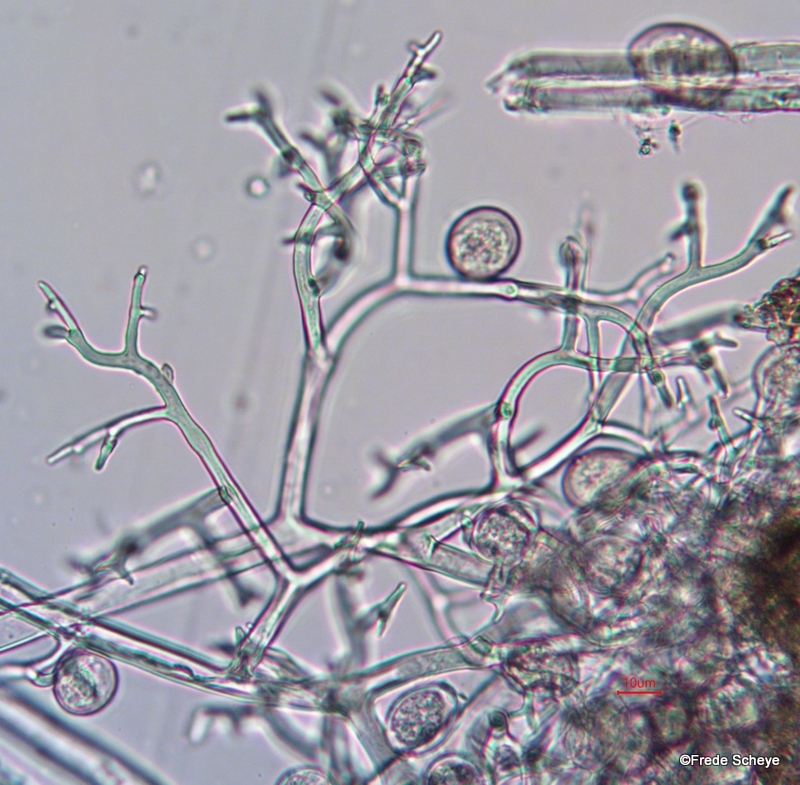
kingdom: Chromista
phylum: Oomycota
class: Peronosporea
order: Peronosporales
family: Peronosporaceae
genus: Peronospora
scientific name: Peronospora calotheca
